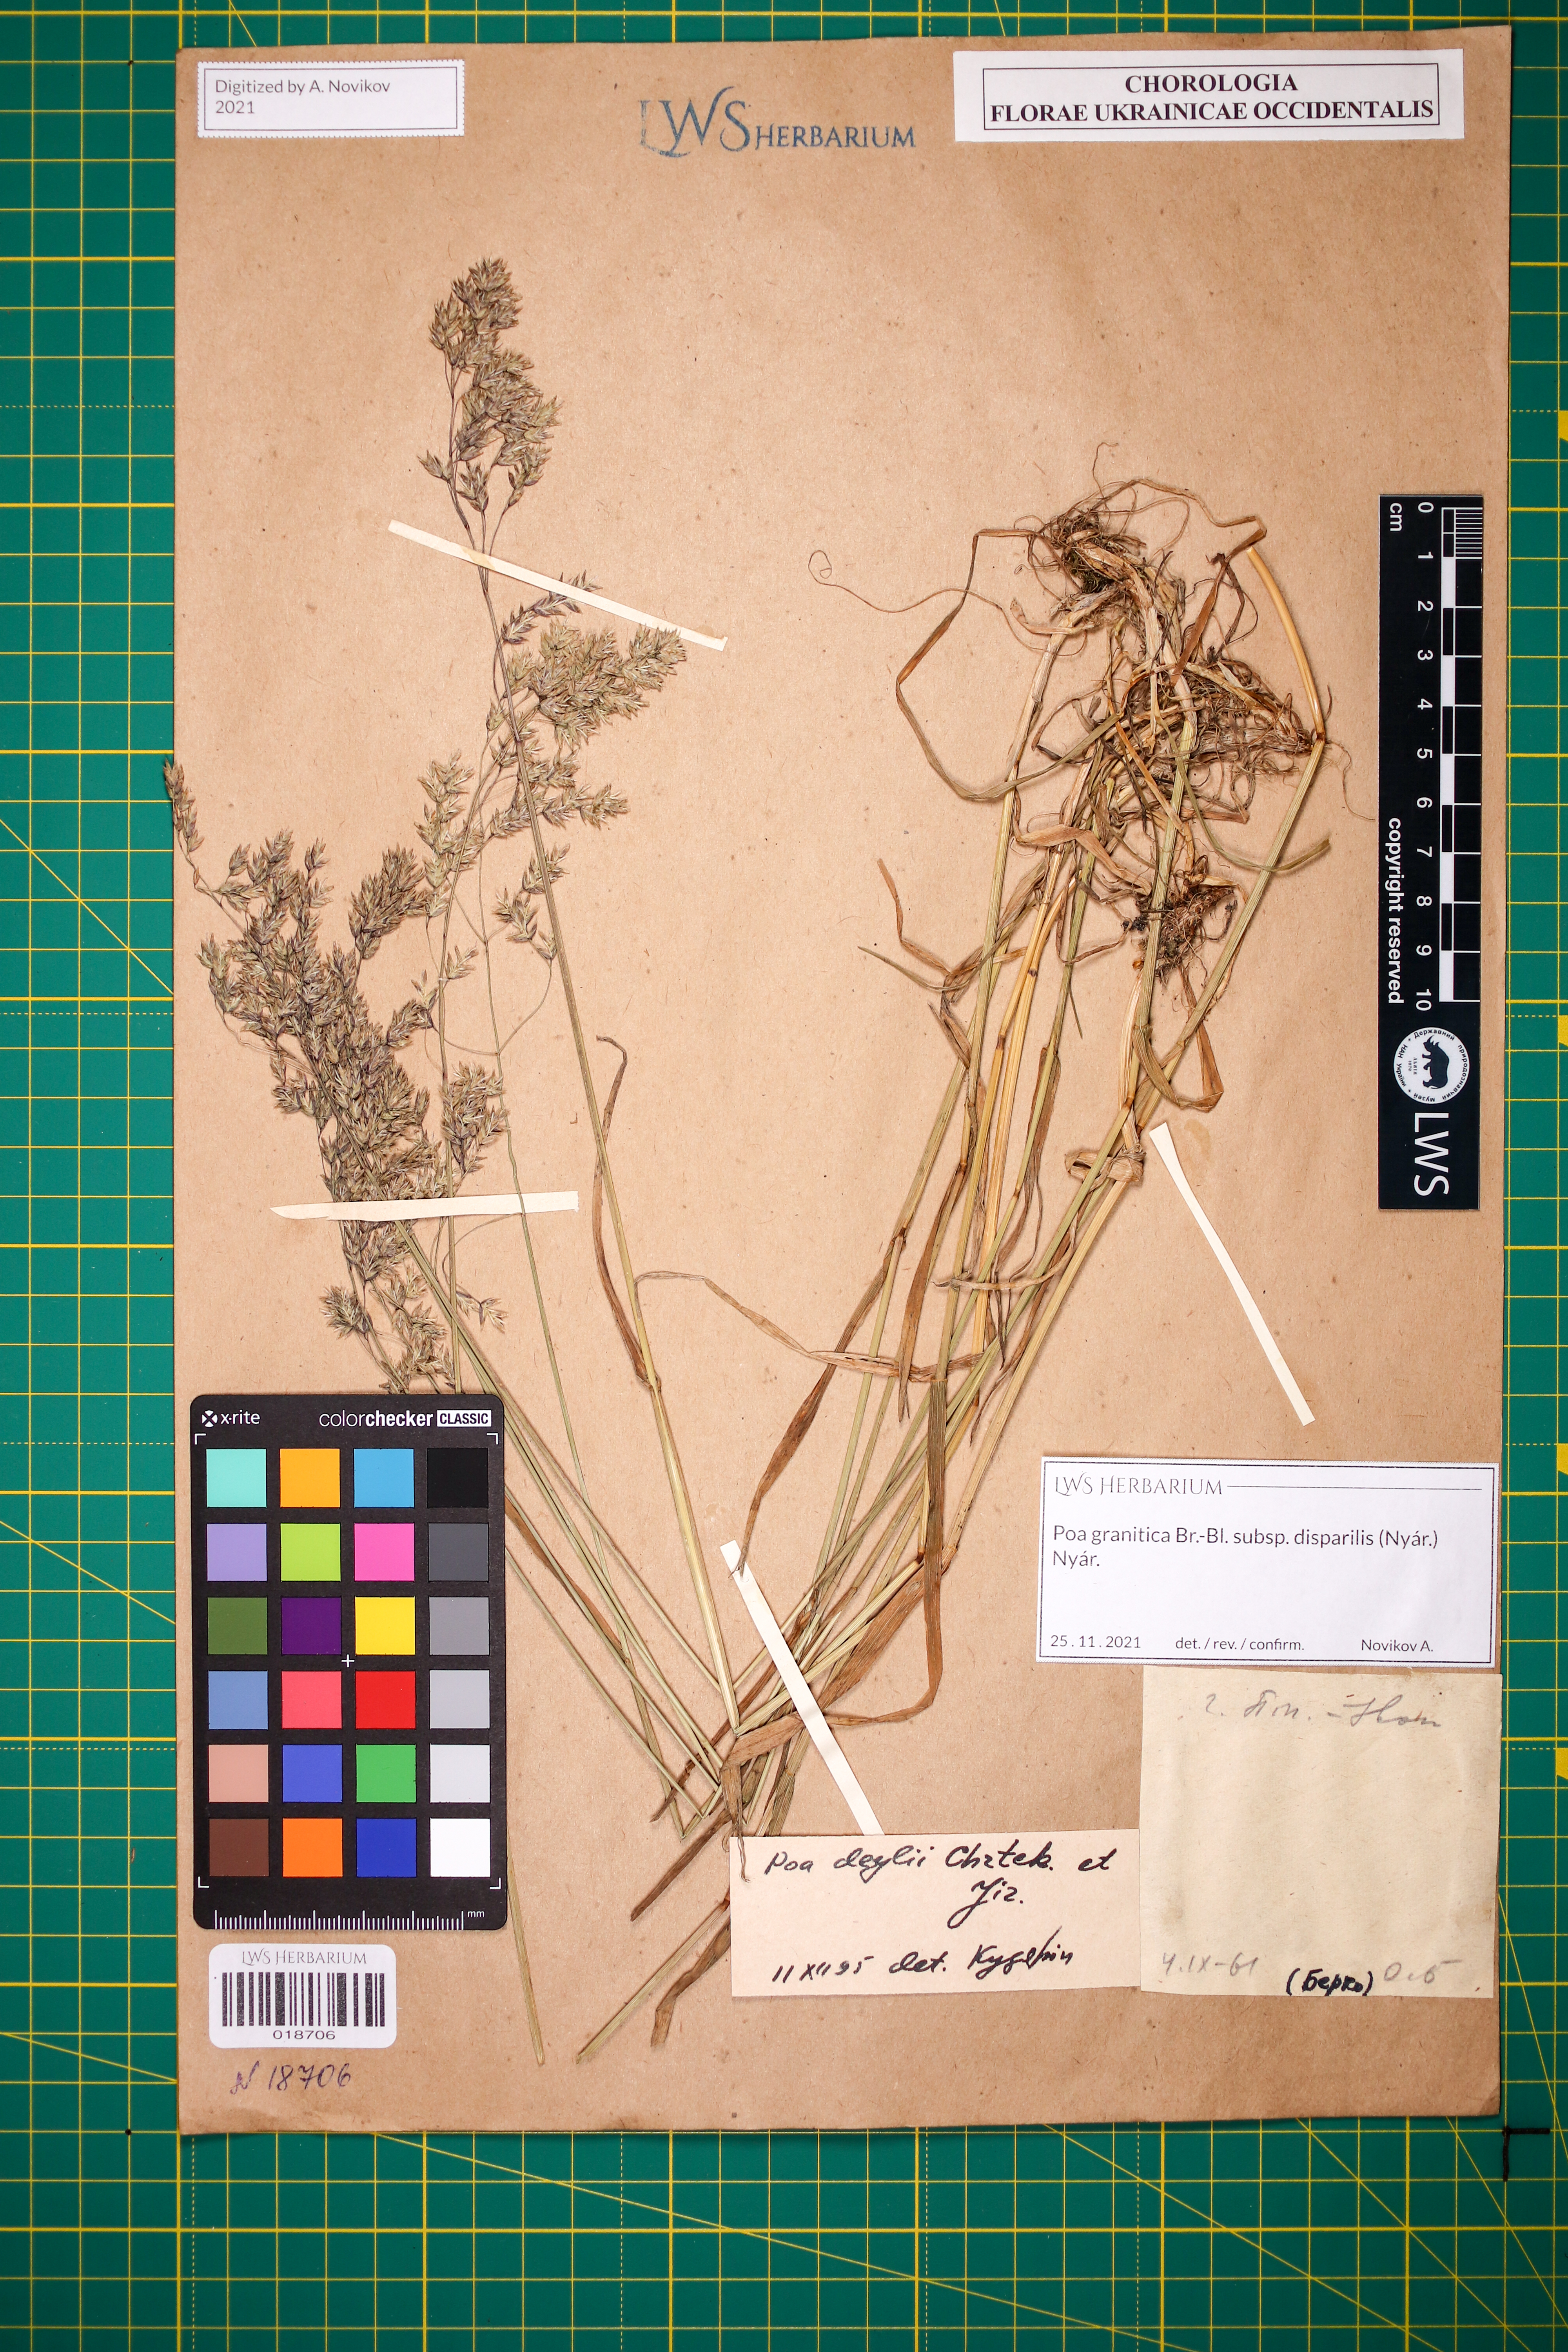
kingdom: Plantae
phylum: Tracheophyta
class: Liliopsida
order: Poales
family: Poaceae
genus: Poa
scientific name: Poa granitica
